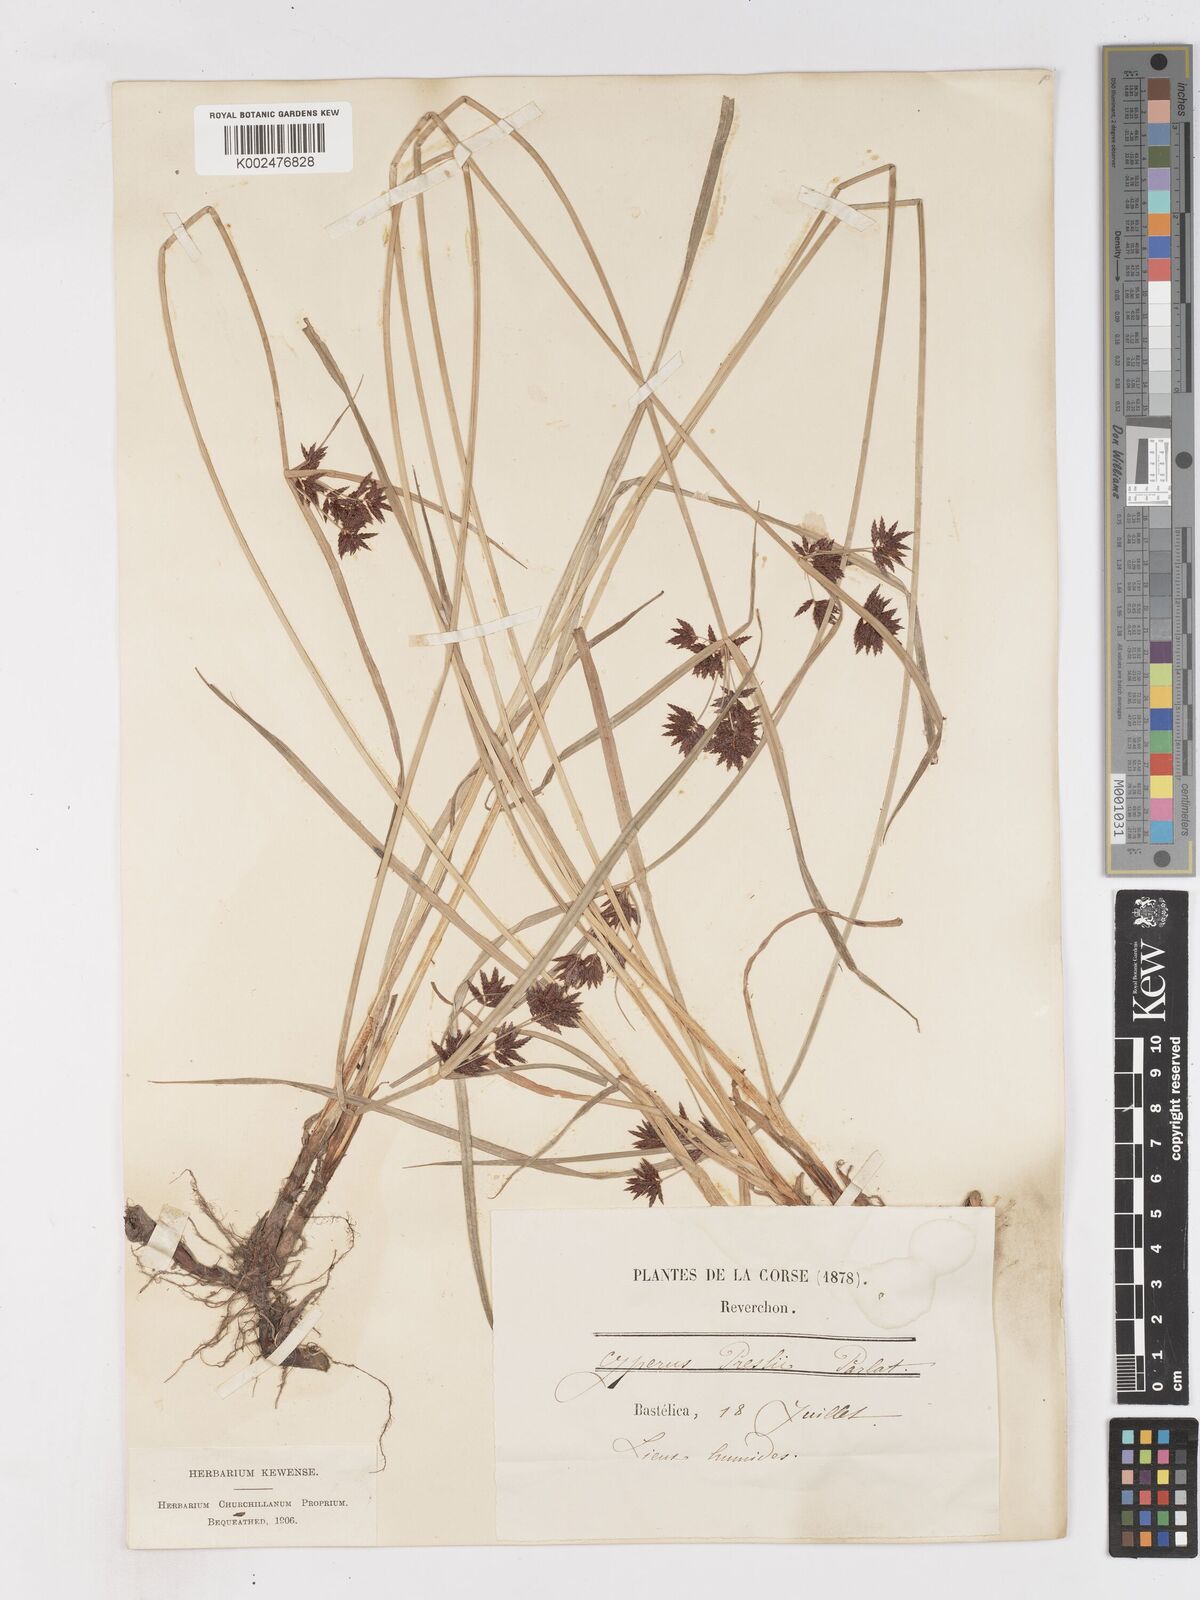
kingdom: Plantae
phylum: Tracheophyta
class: Liliopsida
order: Poales
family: Cyperaceae
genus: Cyperus
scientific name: Cyperus longus
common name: Galingale
